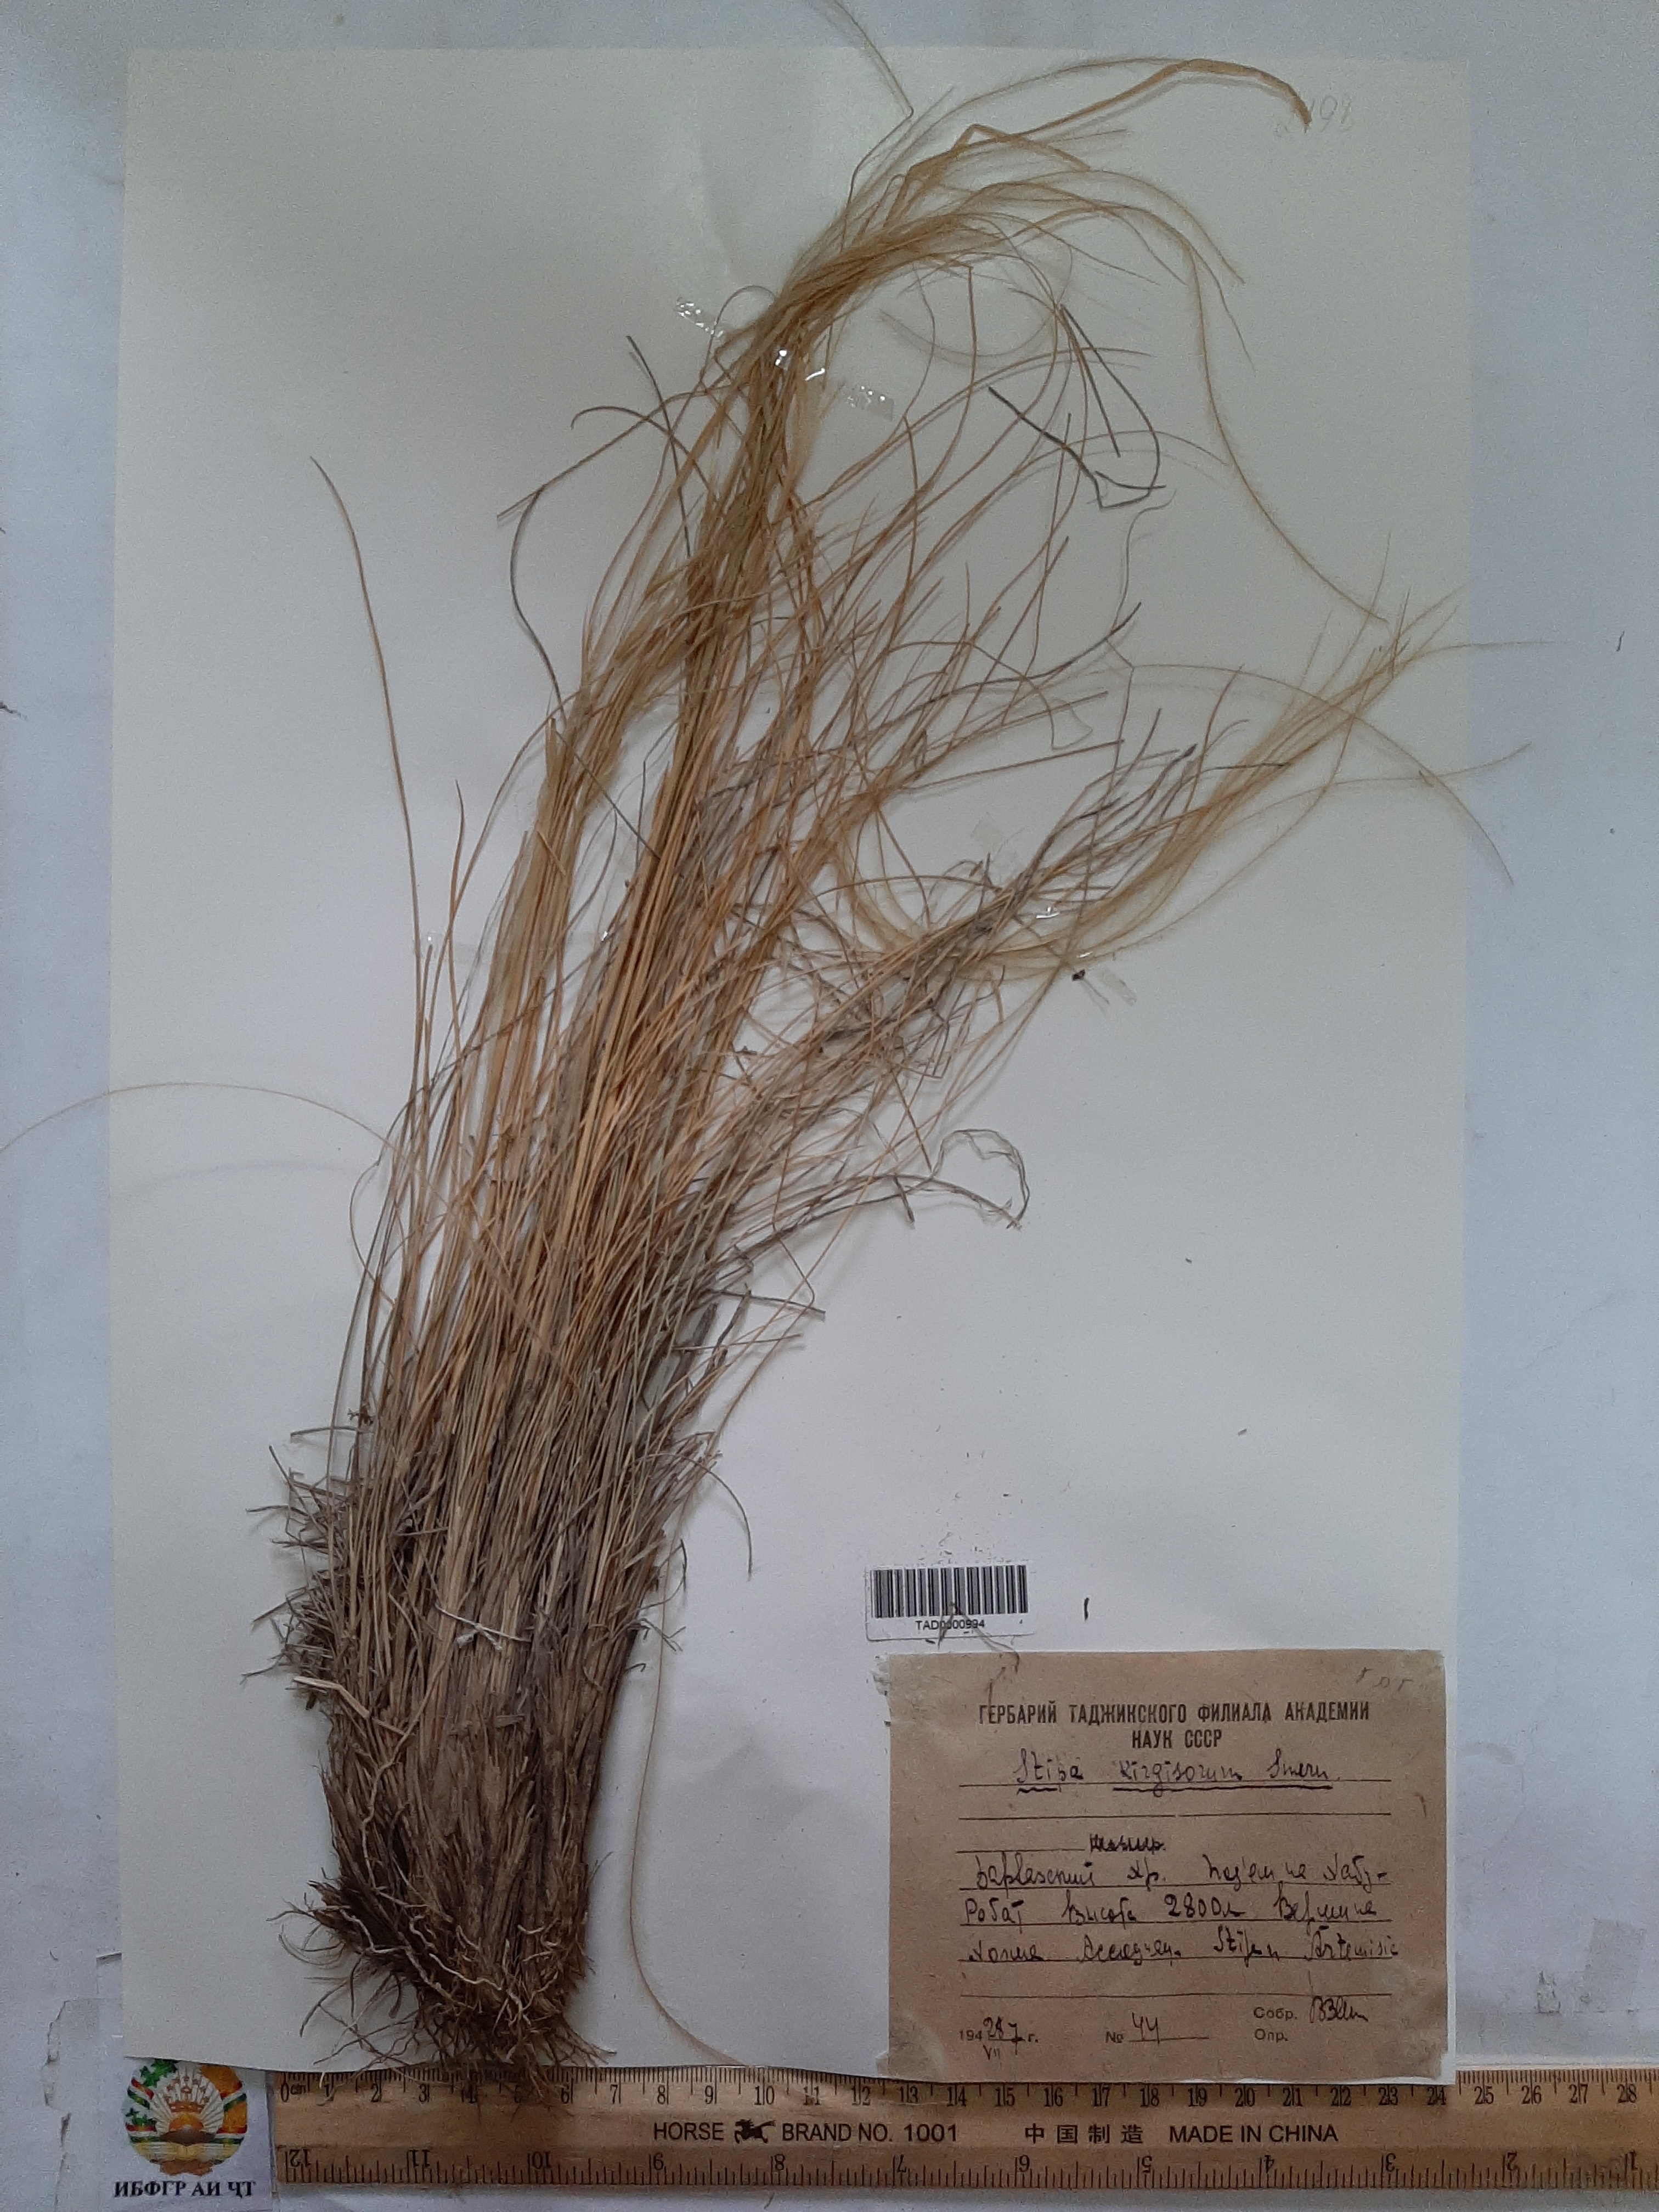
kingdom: Plantae
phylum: Tracheophyta
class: Liliopsida
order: Poales
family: Poaceae
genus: Stipa
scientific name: Stipa kirghisorum
